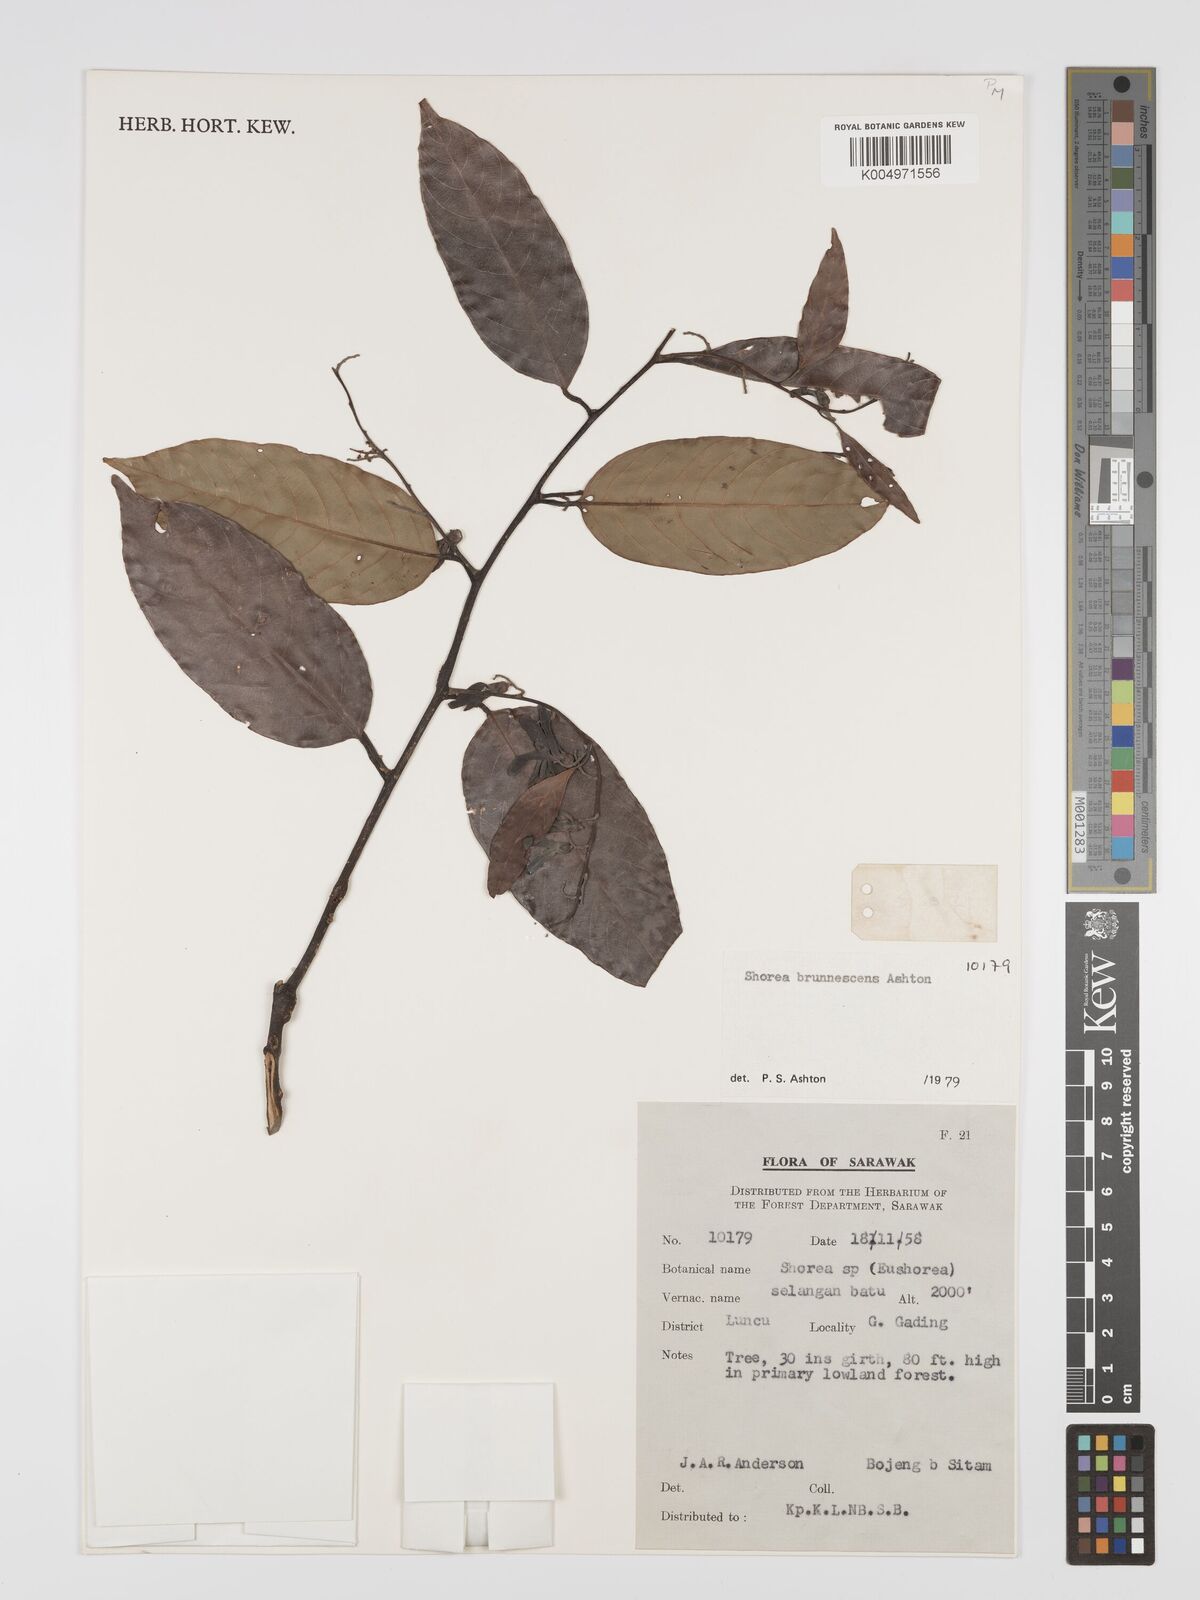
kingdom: Plantae
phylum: Tracheophyta
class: Magnoliopsida
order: Malvales
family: Dipterocarpaceae
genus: Shorea
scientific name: Shorea brunnescens
